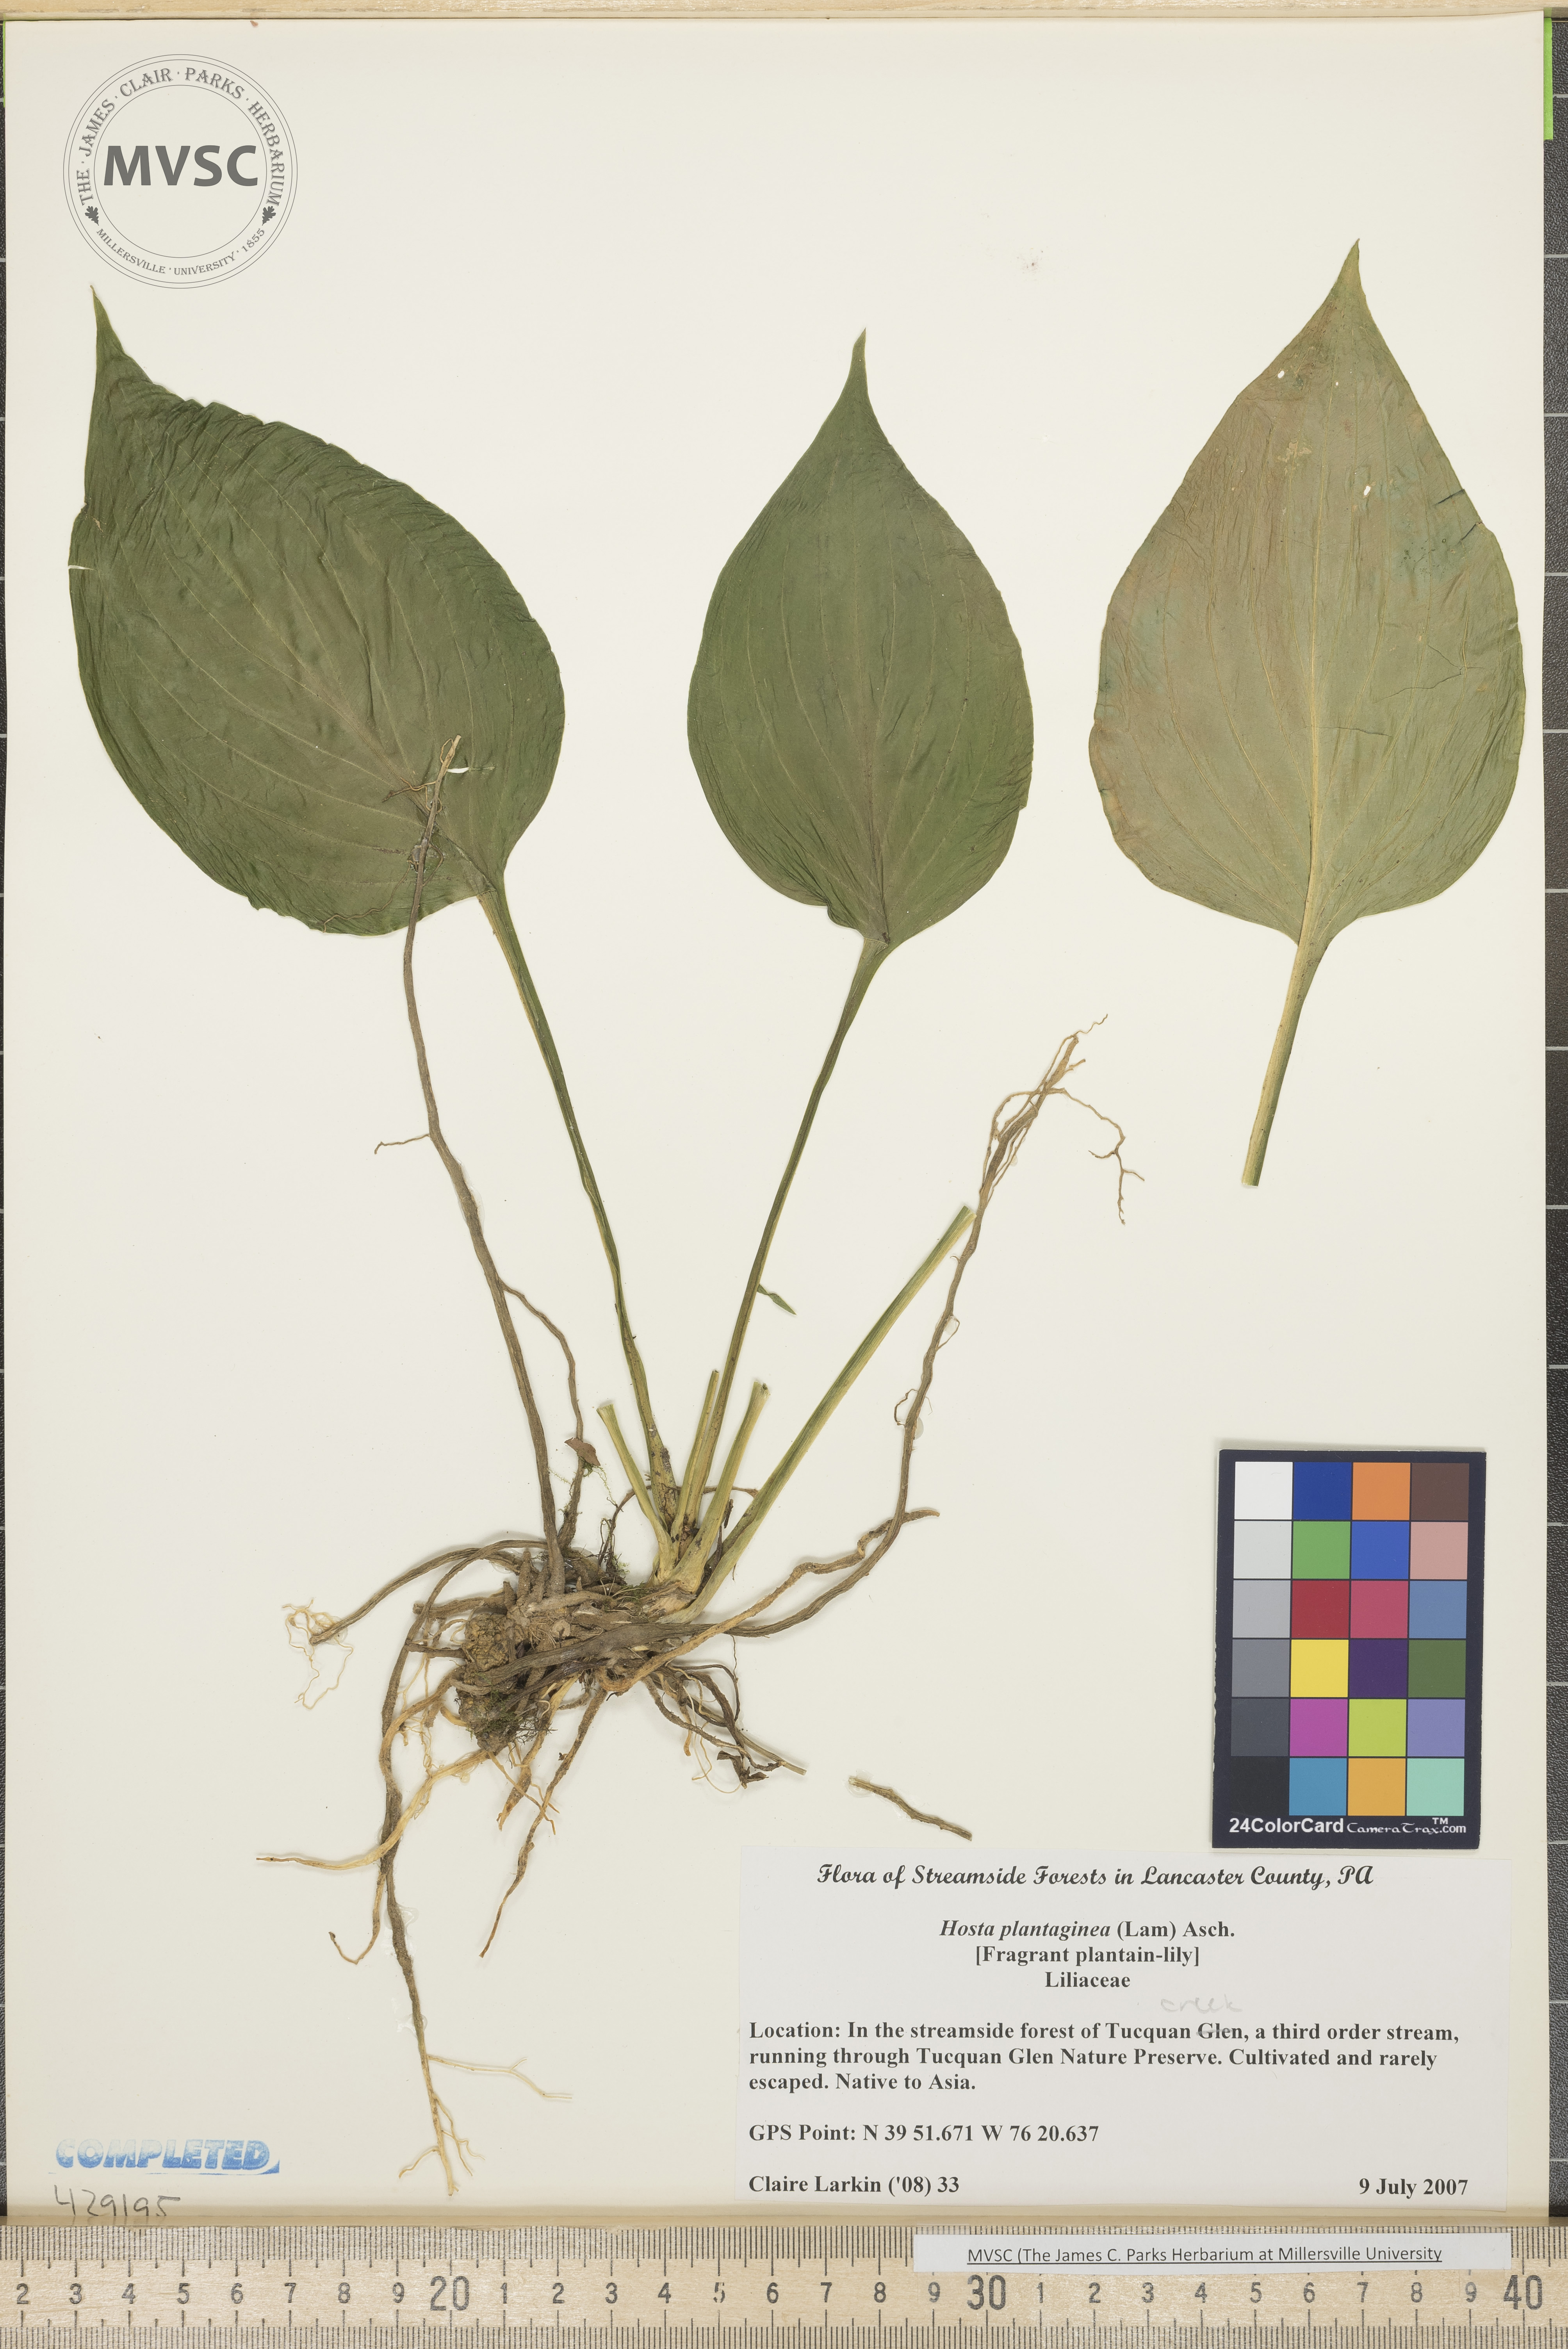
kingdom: Plantae
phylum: Tracheophyta
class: Liliopsida
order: Asparagales
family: Asparagaceae
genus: Hosta
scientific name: Hosta plantaginea
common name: Fragrant plantain lily
